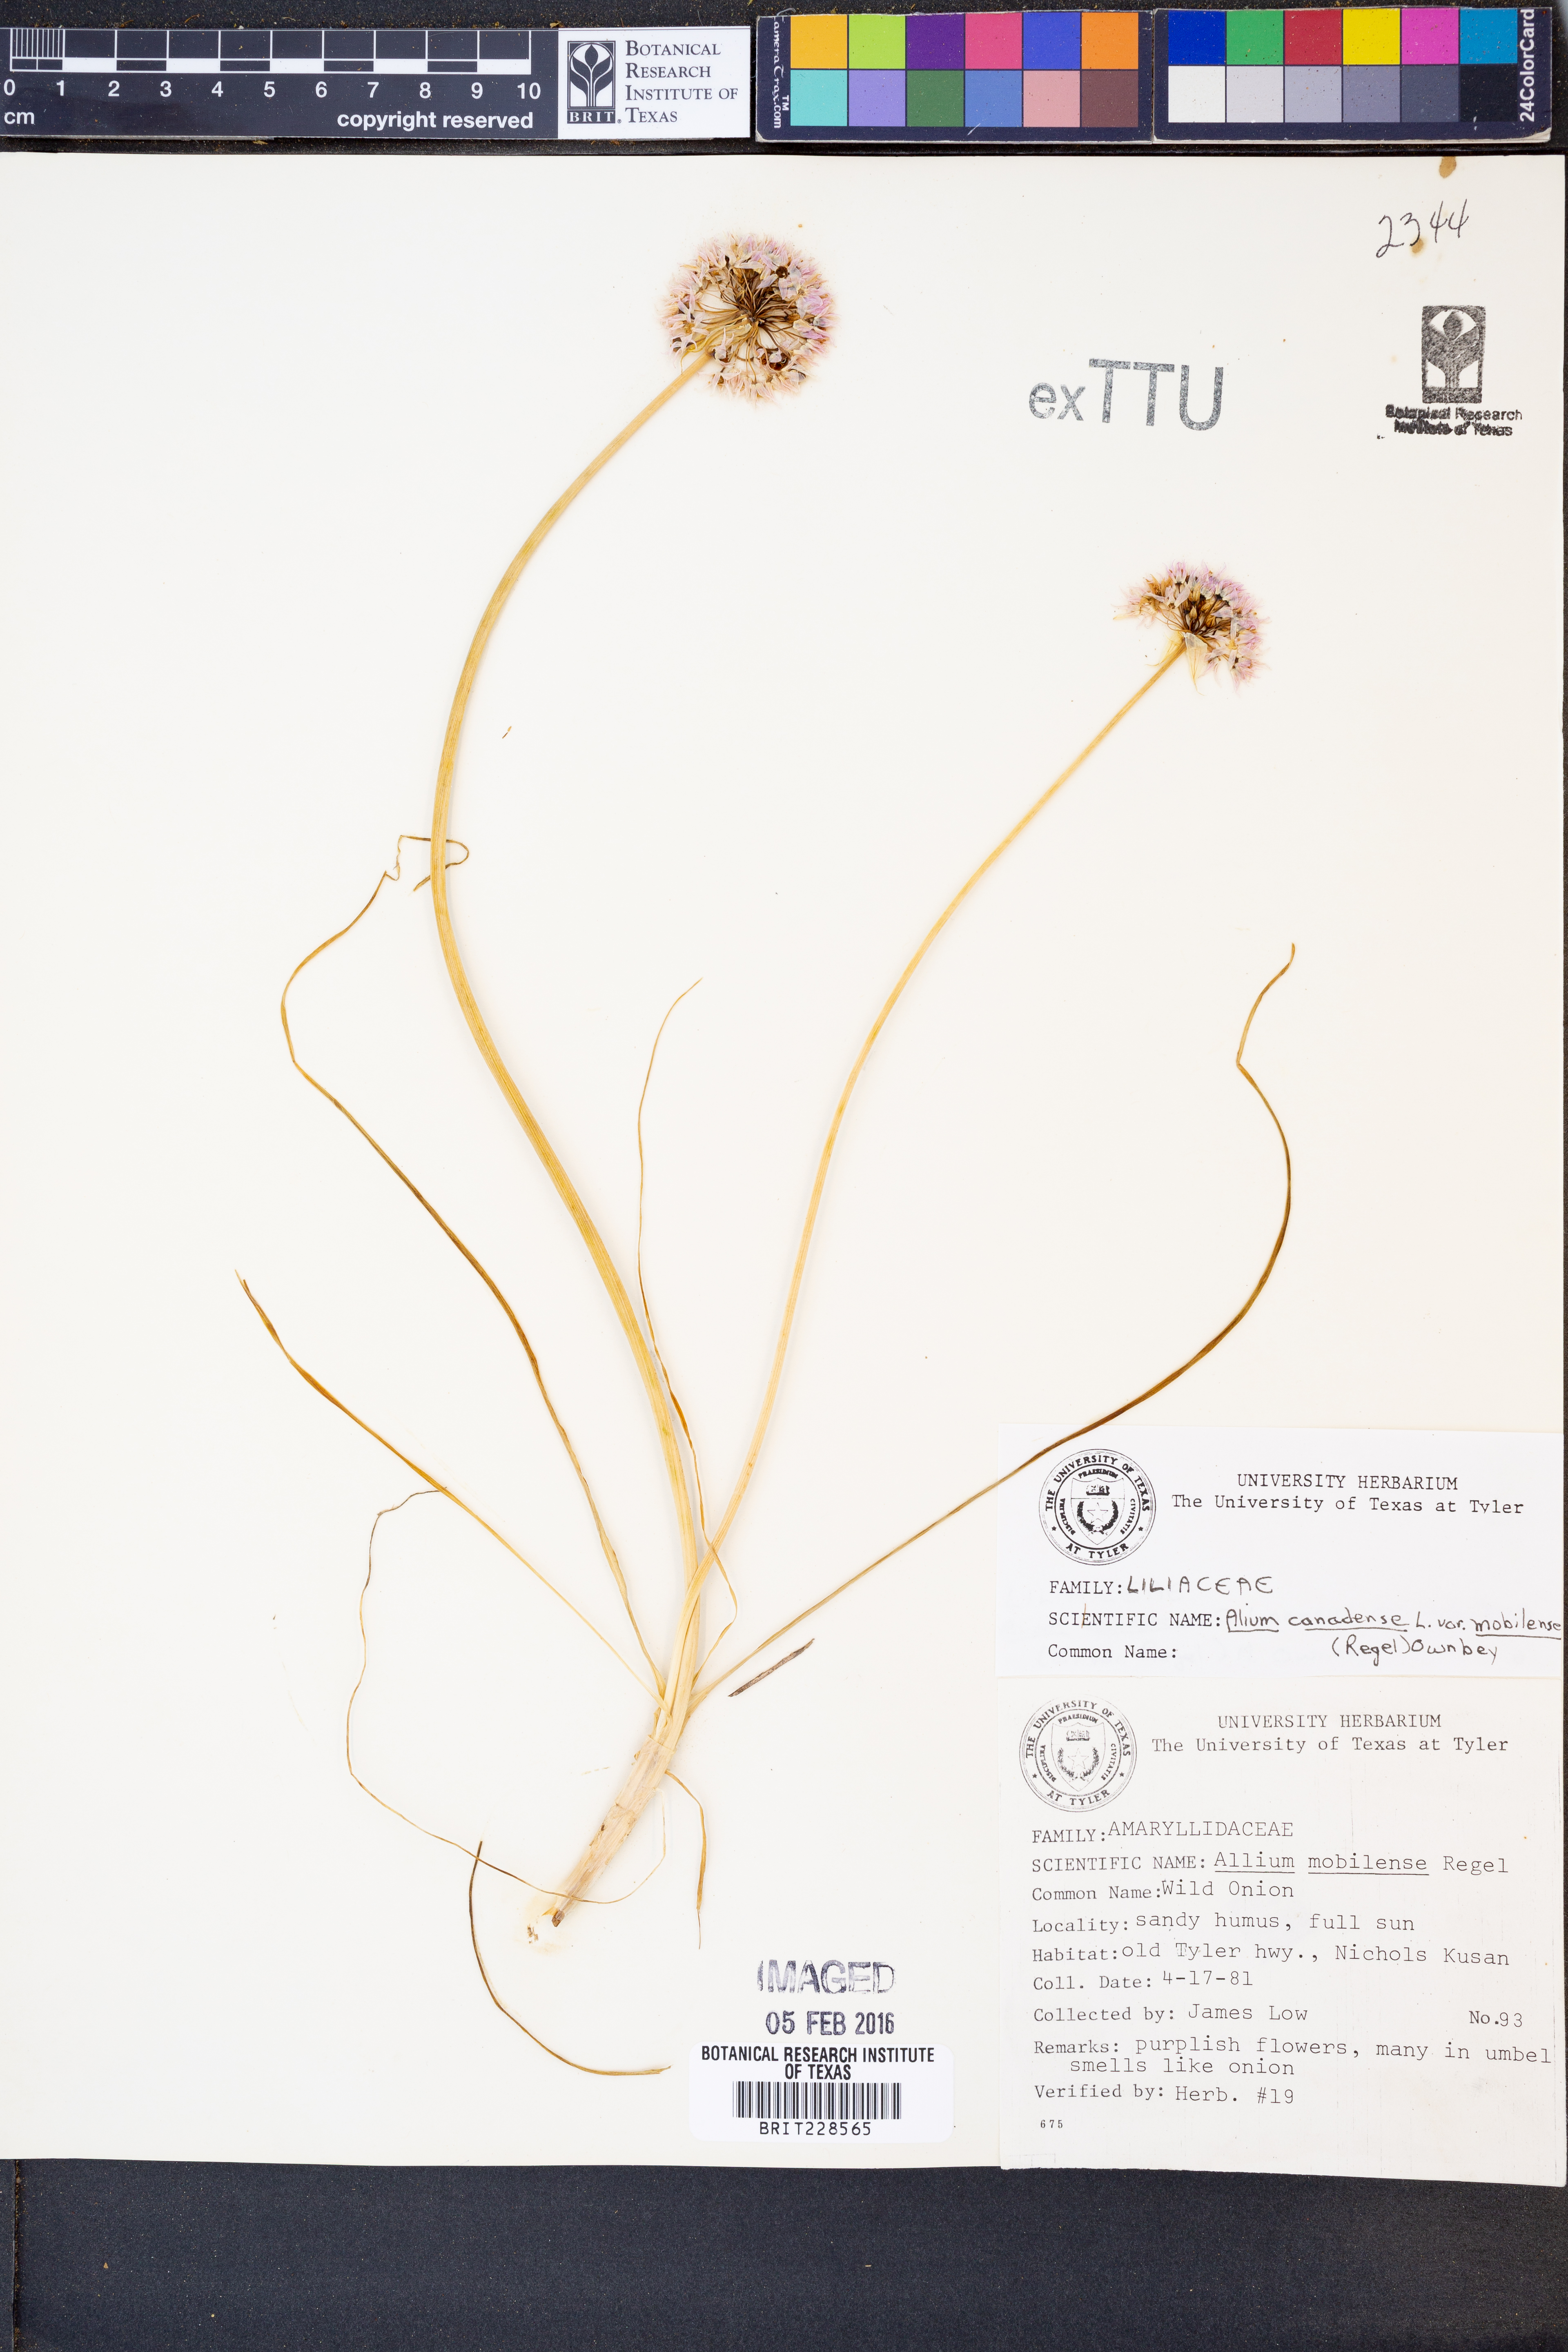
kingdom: Plantae
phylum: Tracheophyta
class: Liliopsida
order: Asparagales
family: Amaryllidaceae
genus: Allium
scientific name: Allium canadense
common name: Meadow garlic
